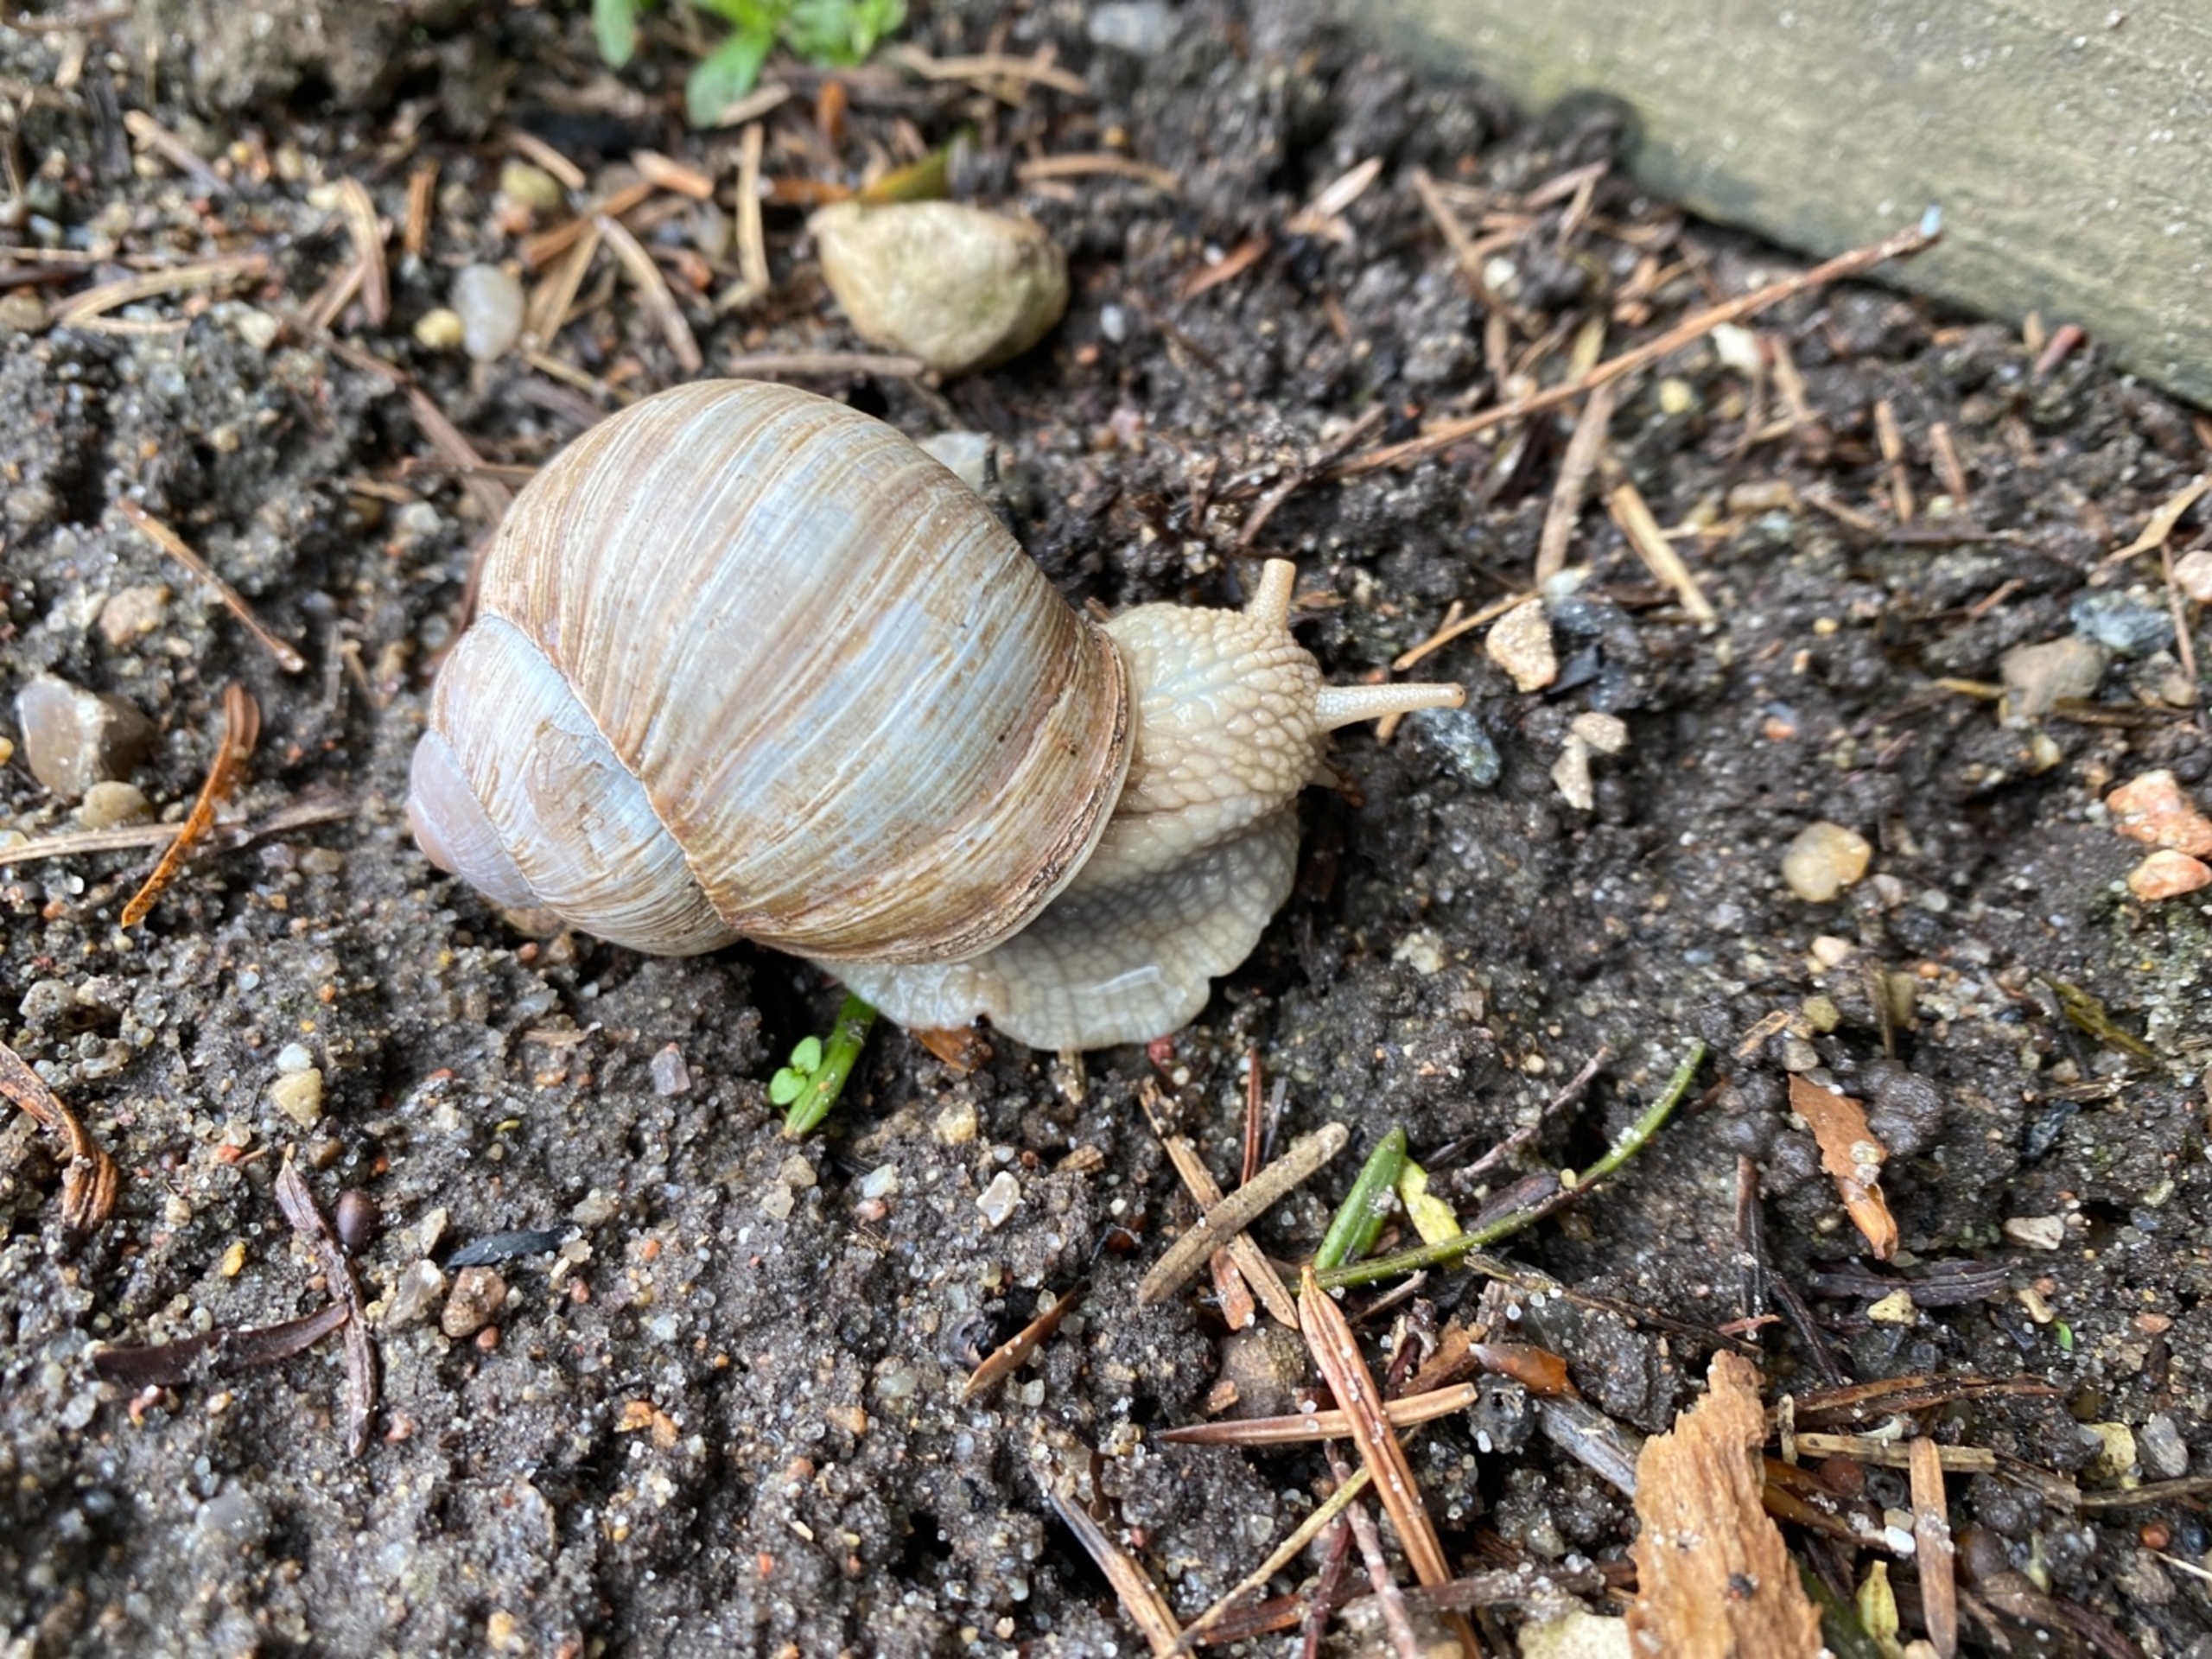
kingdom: Animalia
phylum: Mollusca
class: Gastropoda
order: Stylommatophora
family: Helicidae
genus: Helix
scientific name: Helix pomatia
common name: Vinbjergsnegl
